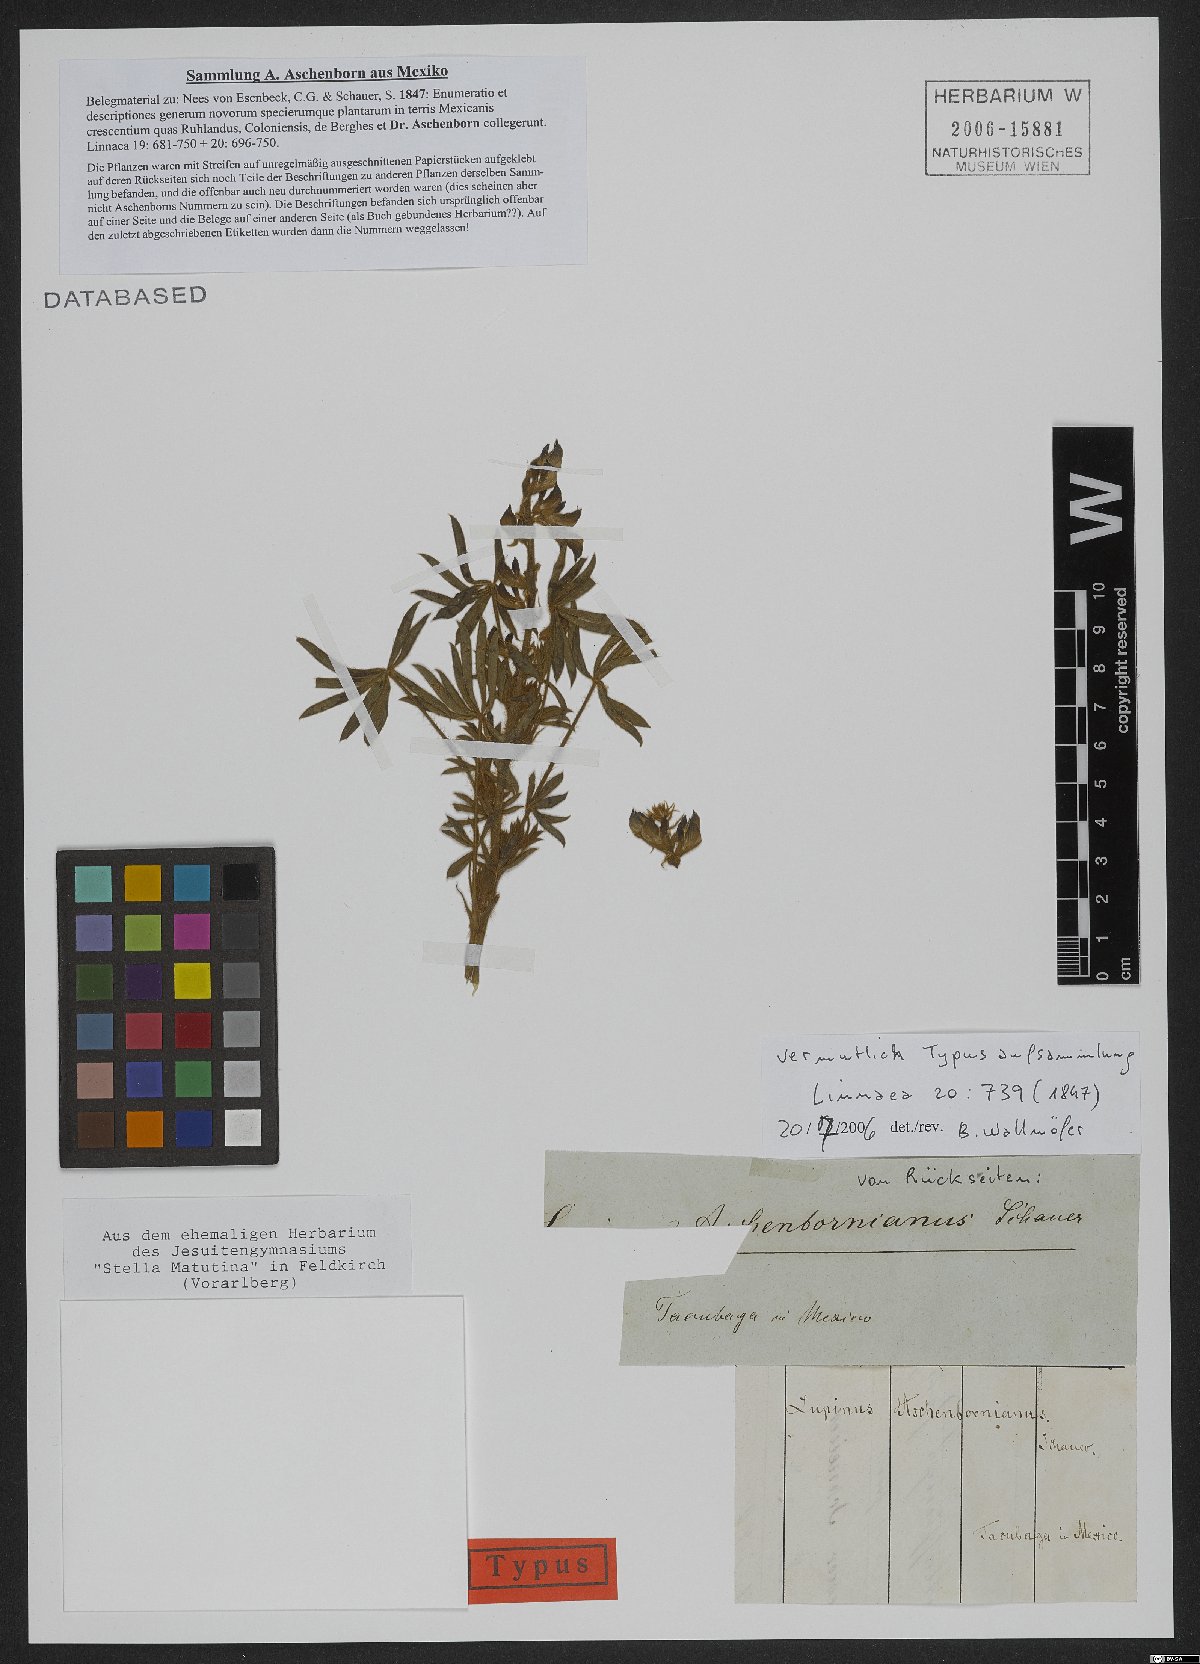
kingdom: Plantae
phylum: Tracheophyta
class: Magnoliopsida
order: Fabales
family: Fabaceae
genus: Lupinus
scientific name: Lupinus aschenbornii
